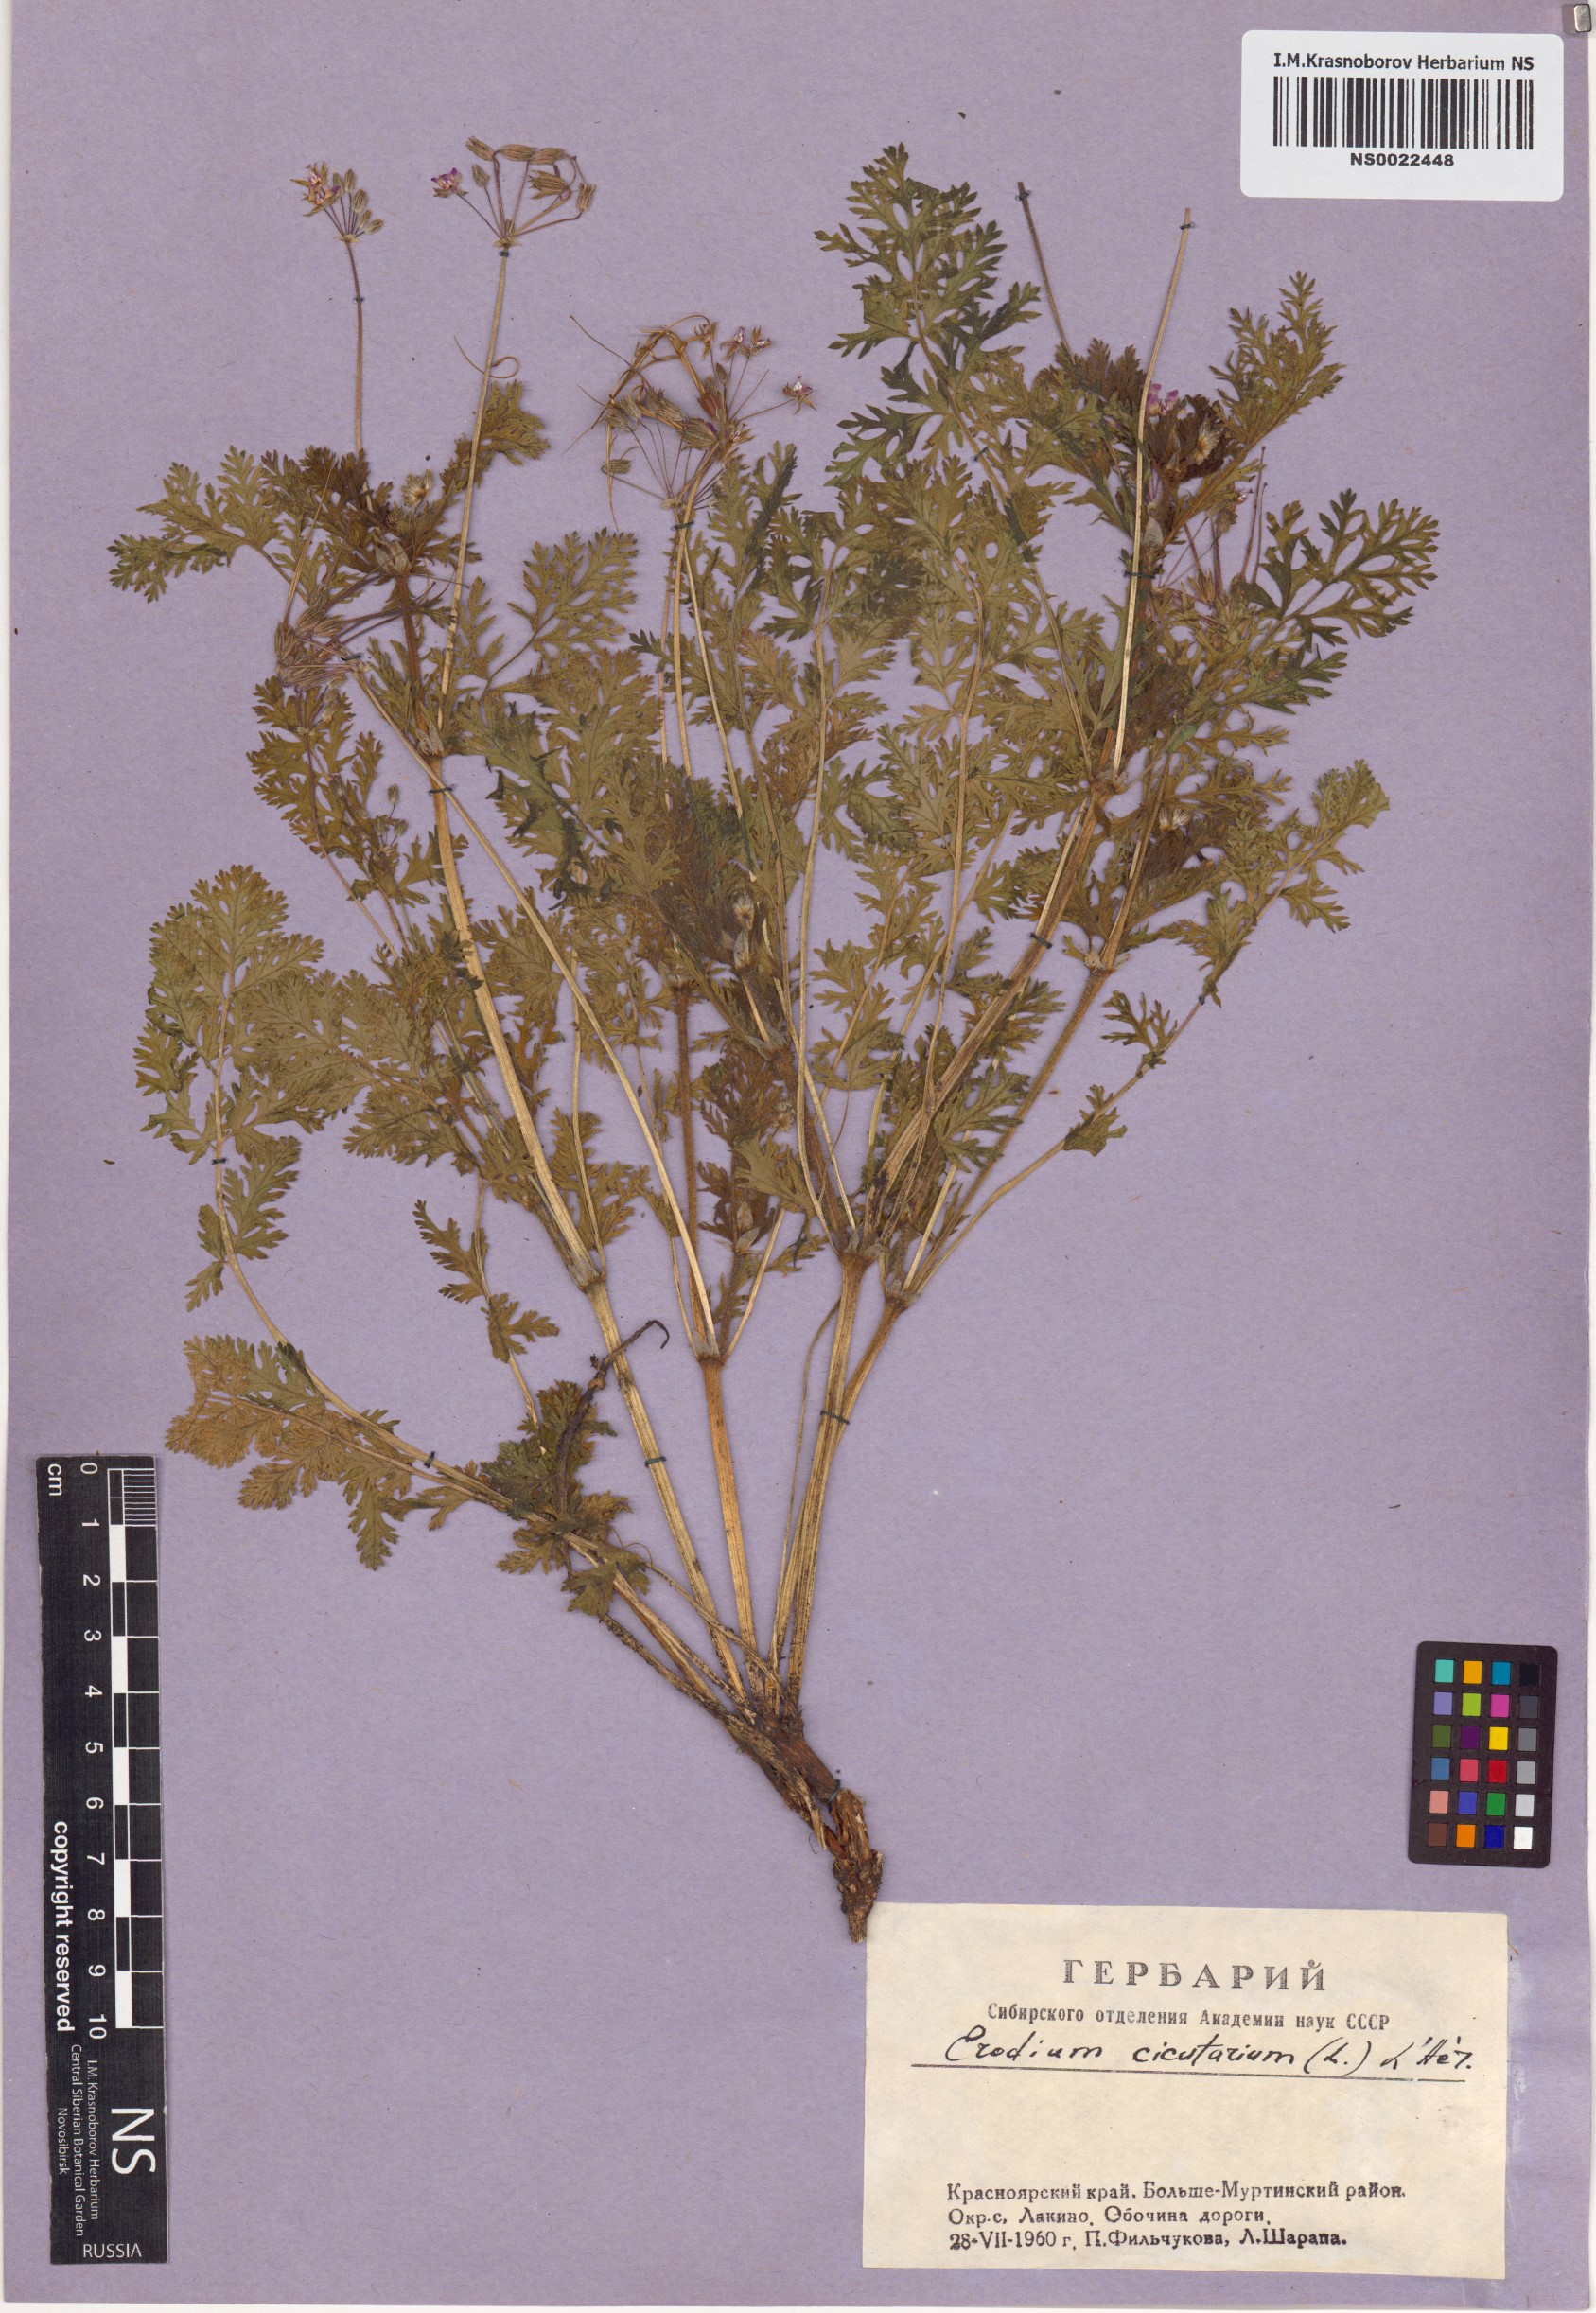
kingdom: Plantae
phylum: Tracheophyta
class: Magnoliopsida
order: Geraniales
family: Geraniaceae
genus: Erodium
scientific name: Erodium cicutarium
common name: Common stork's-bill
